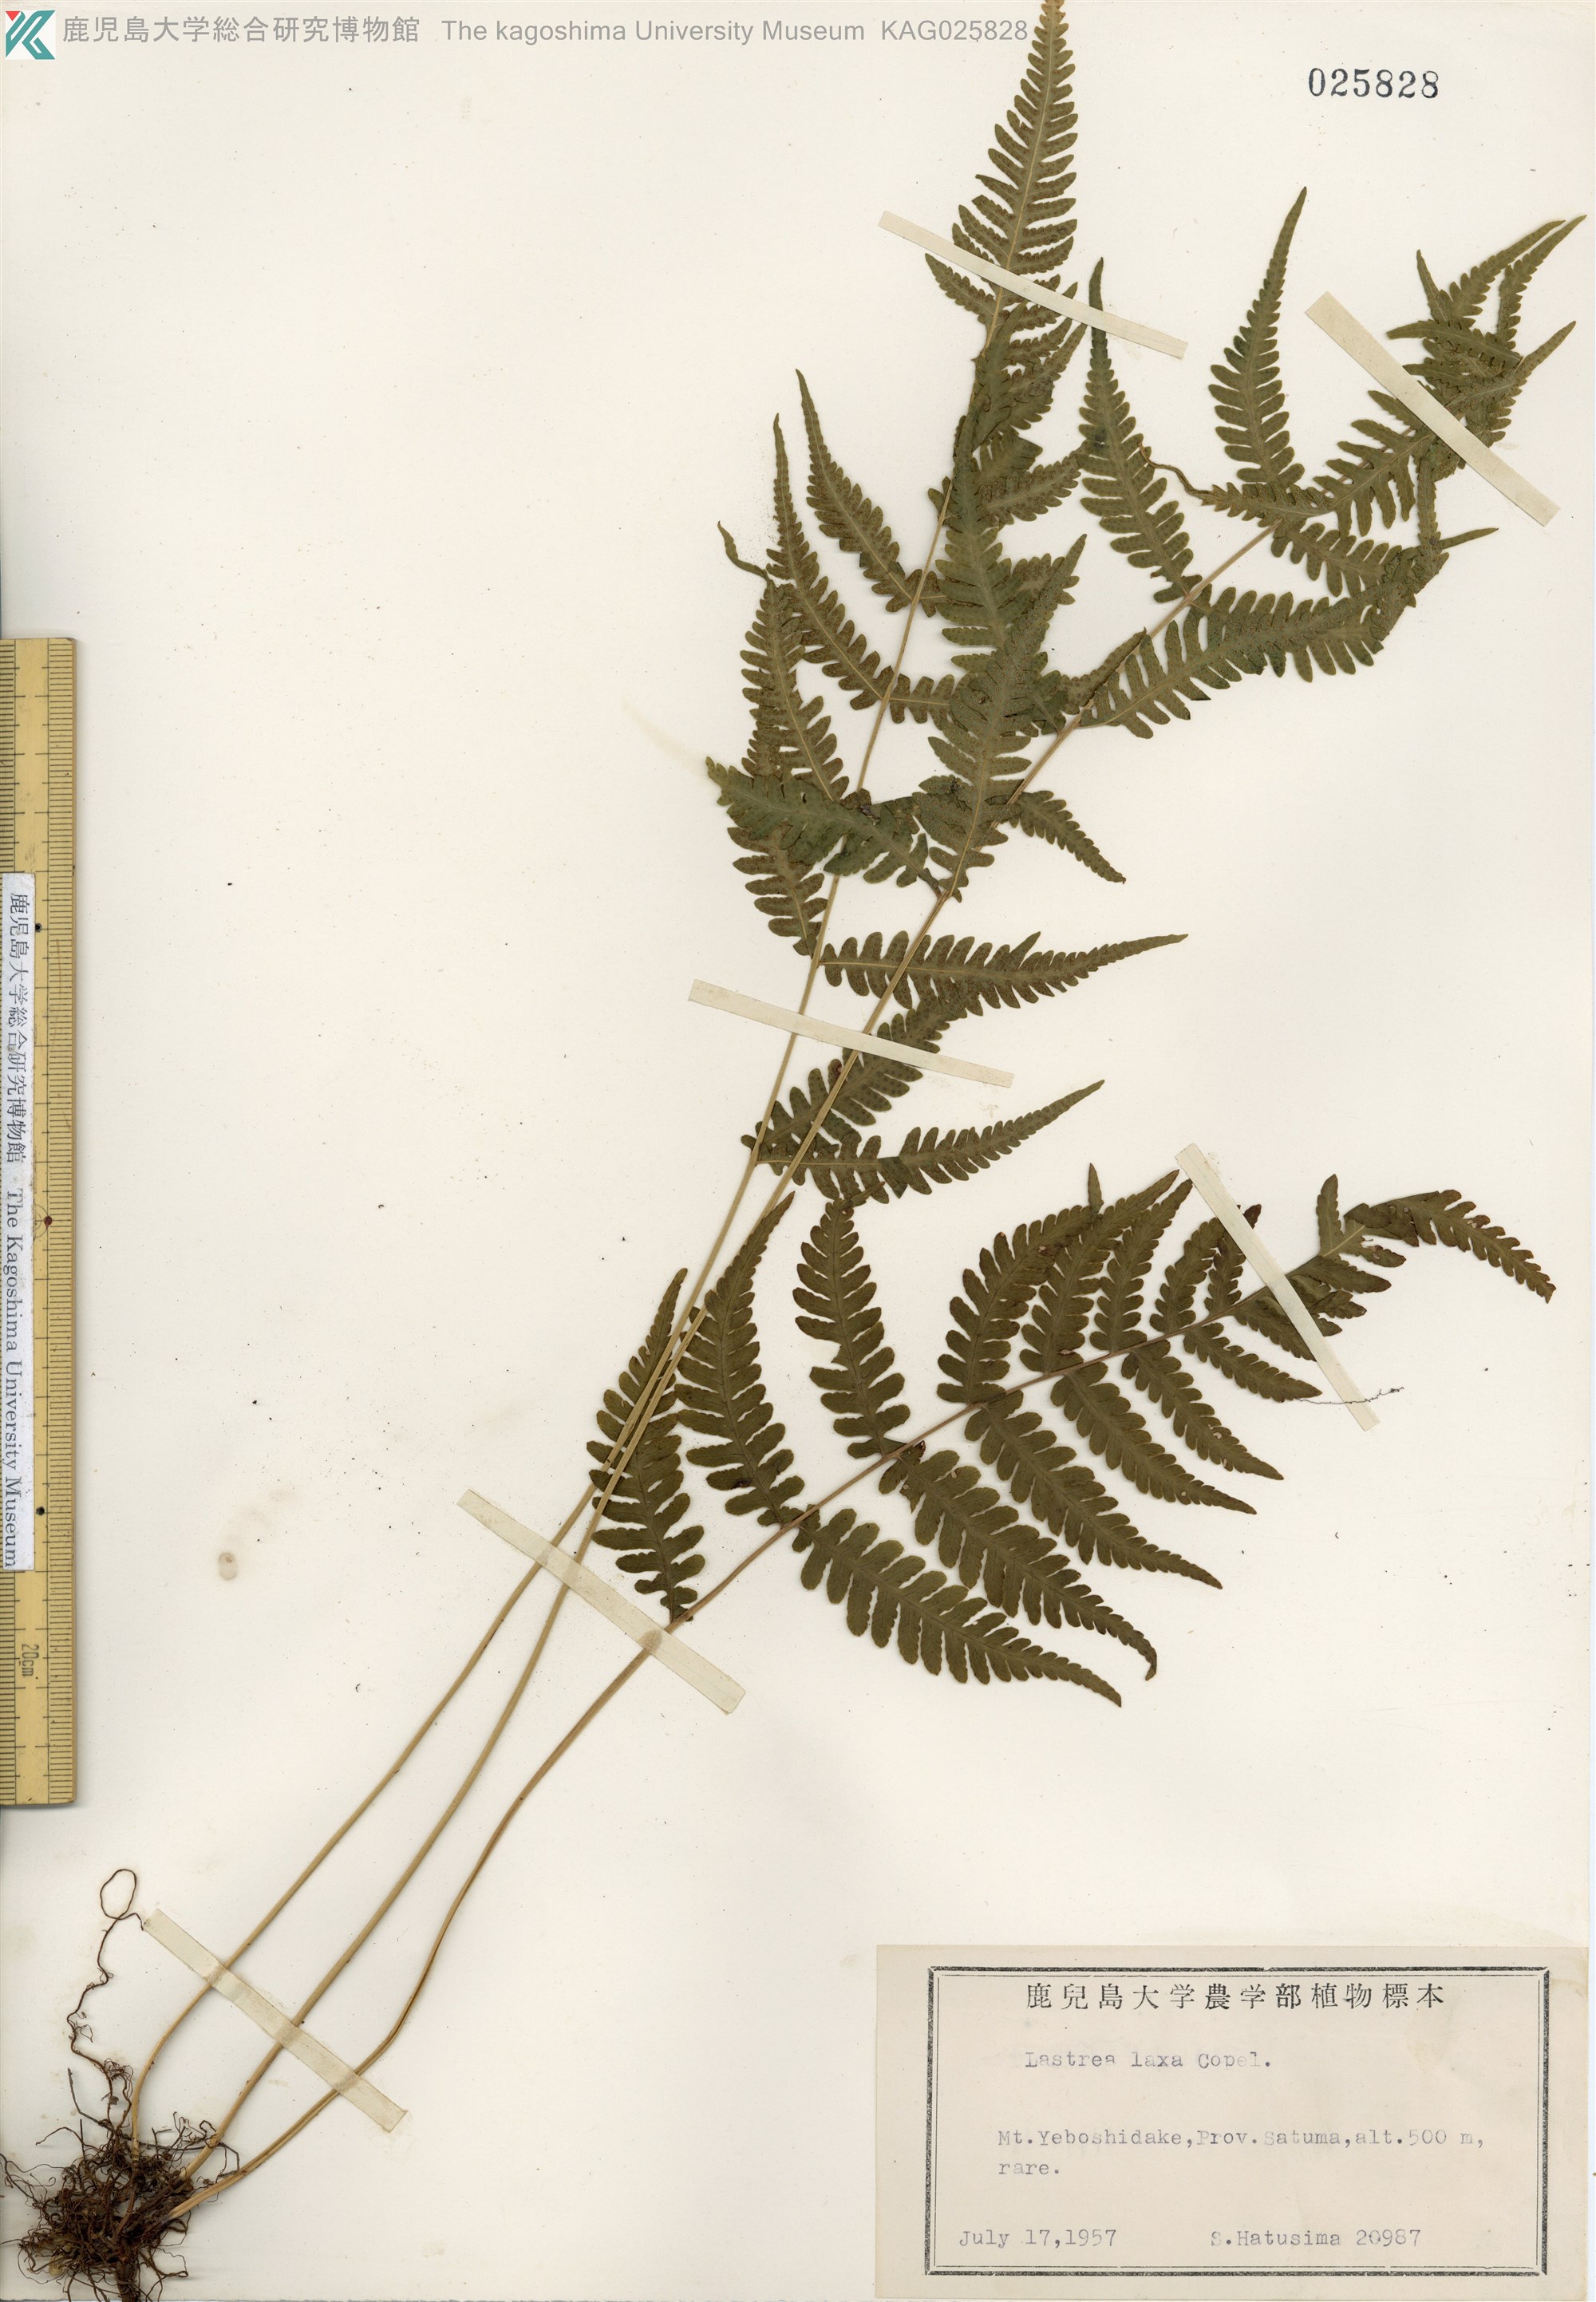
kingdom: Plantae
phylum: Tracheophyta
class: Polypodiopsida
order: Polypodiales
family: Thelypteridaceae
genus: Metathelypteris
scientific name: Metathelypteris laxa
